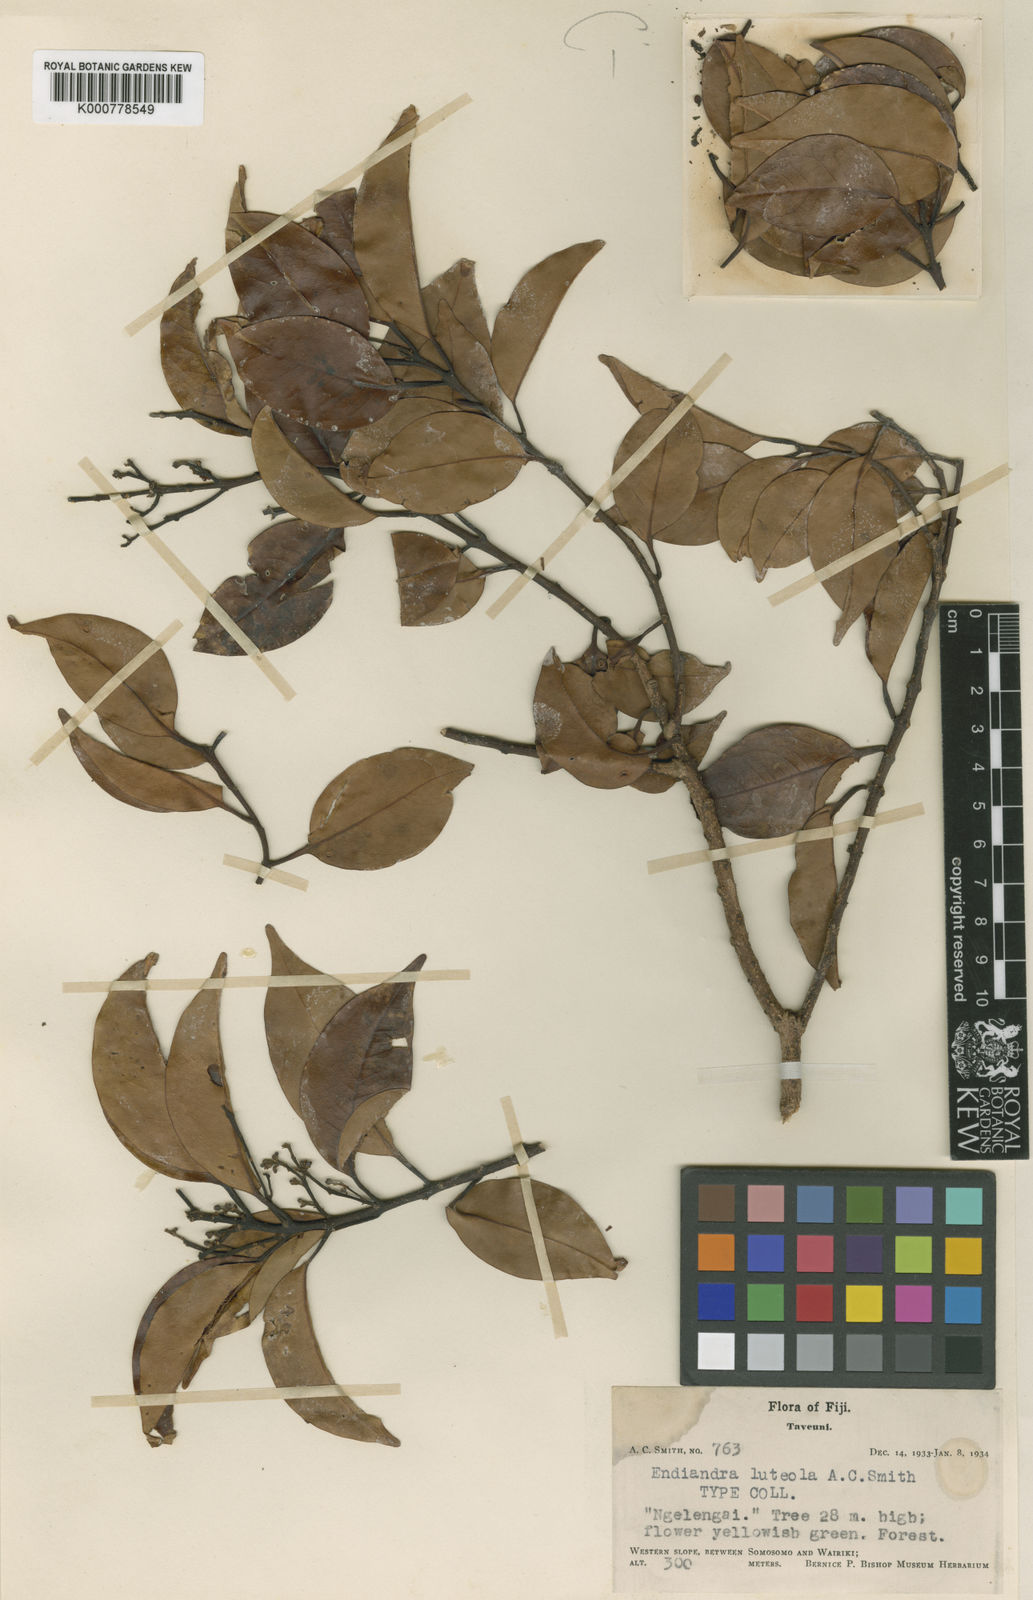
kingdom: Plantae
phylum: Tracheophyta
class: Magnoliopsida
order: Laurales
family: Lauraceae
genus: Endiandra
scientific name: Endiandra luteola
